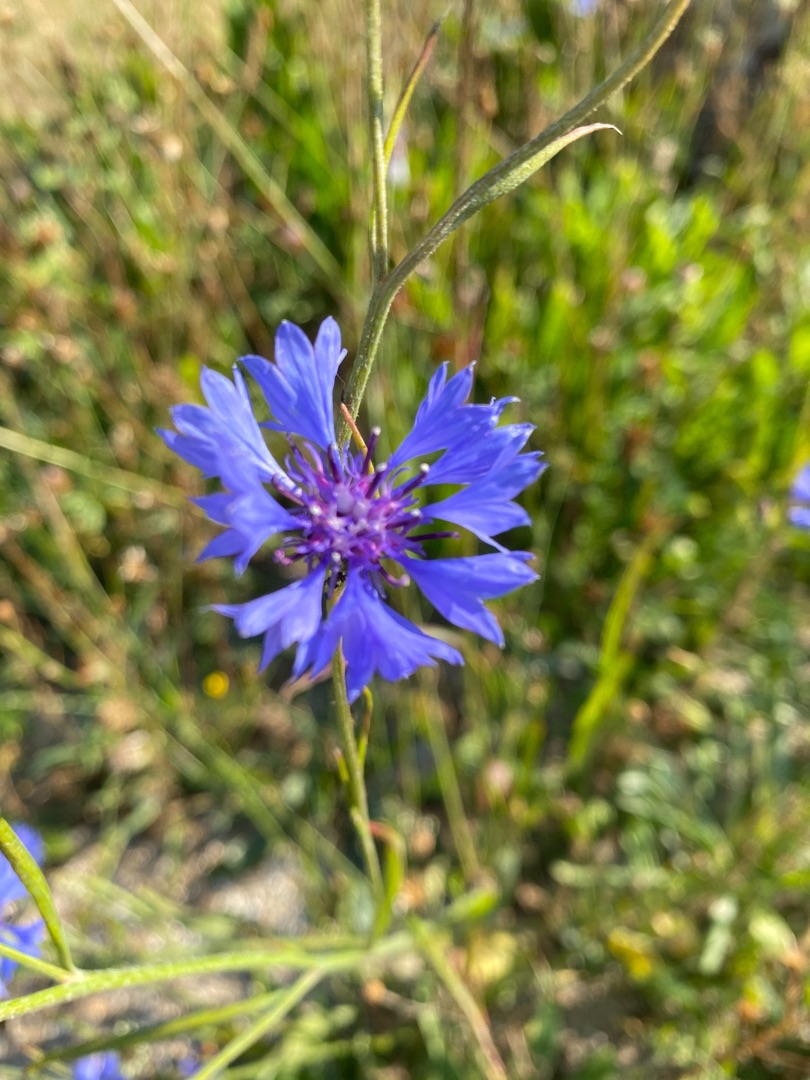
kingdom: Plantae
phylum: Tracheophyta
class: Magnoliopsida
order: Asterales
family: Asteraceae
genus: Centaurea
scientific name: Centaurea cyanus
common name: Kornblomst
